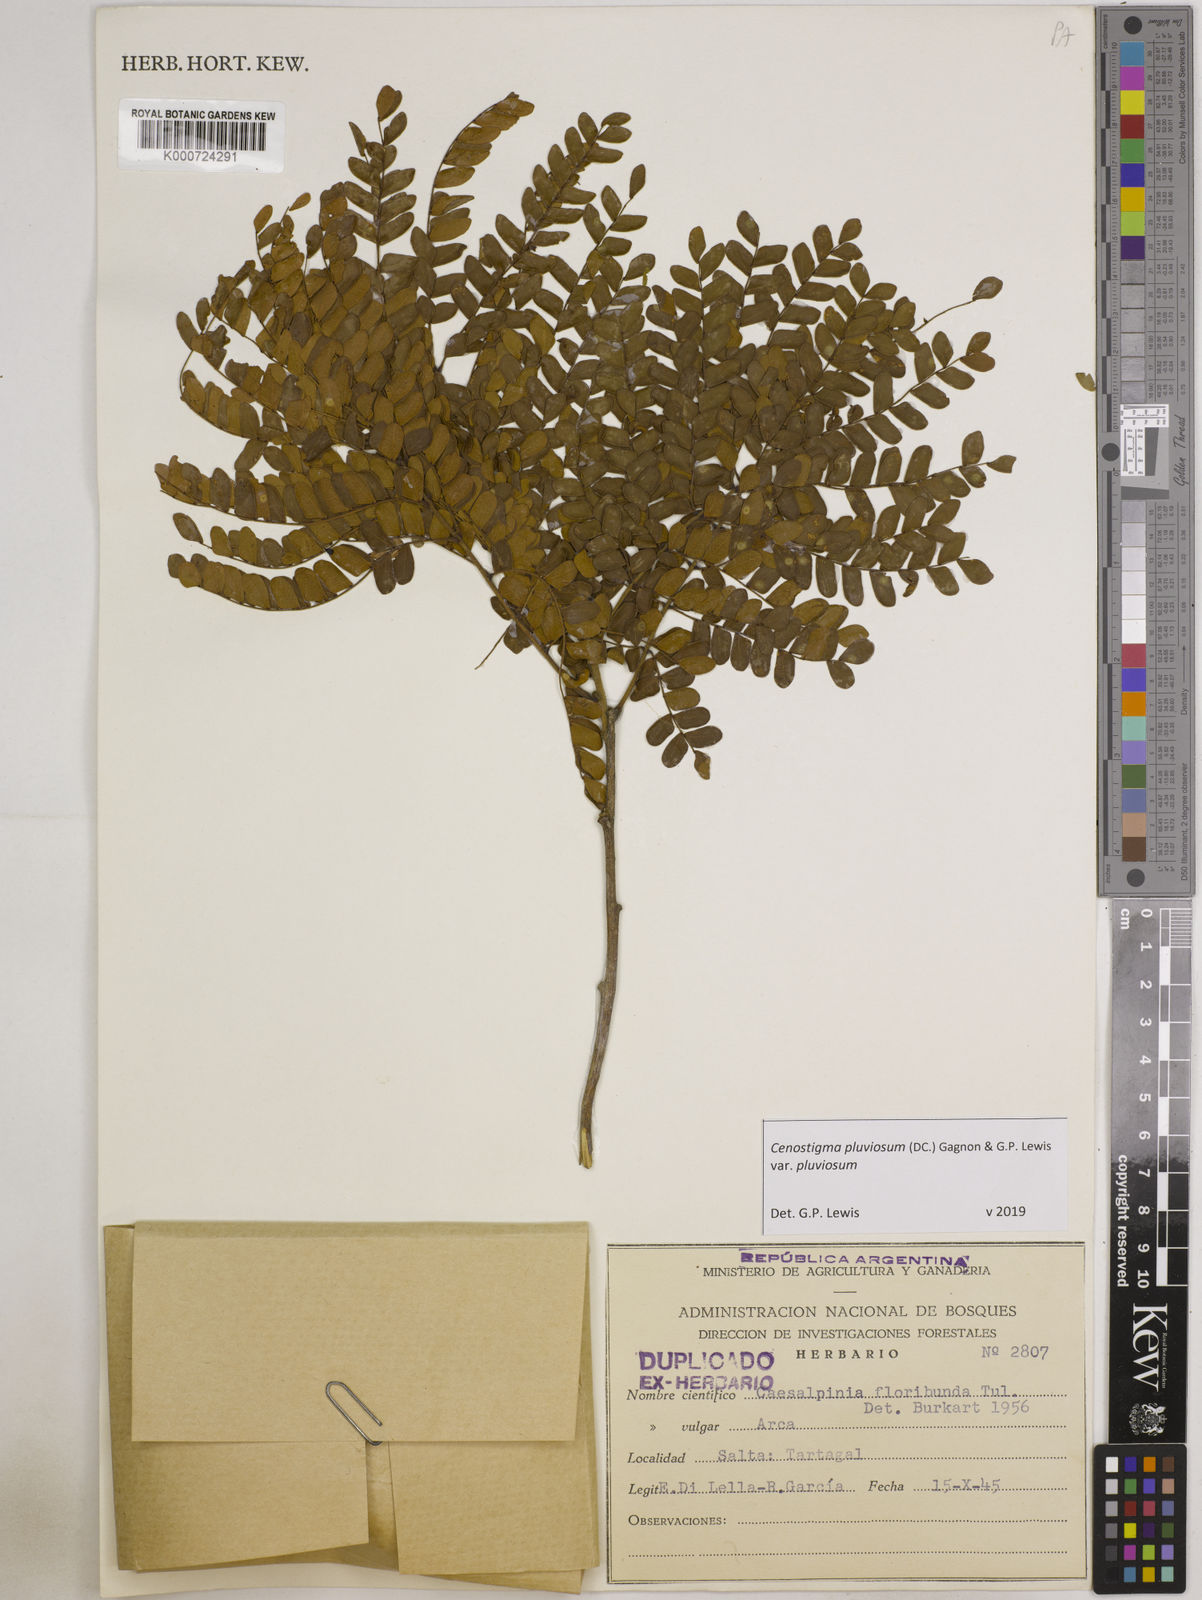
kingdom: Plantae
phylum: Tracheophyta
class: Magnoliopsida
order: Fabales
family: Fabaceae
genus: Cenostigma
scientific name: Cenostigma pluviosum
